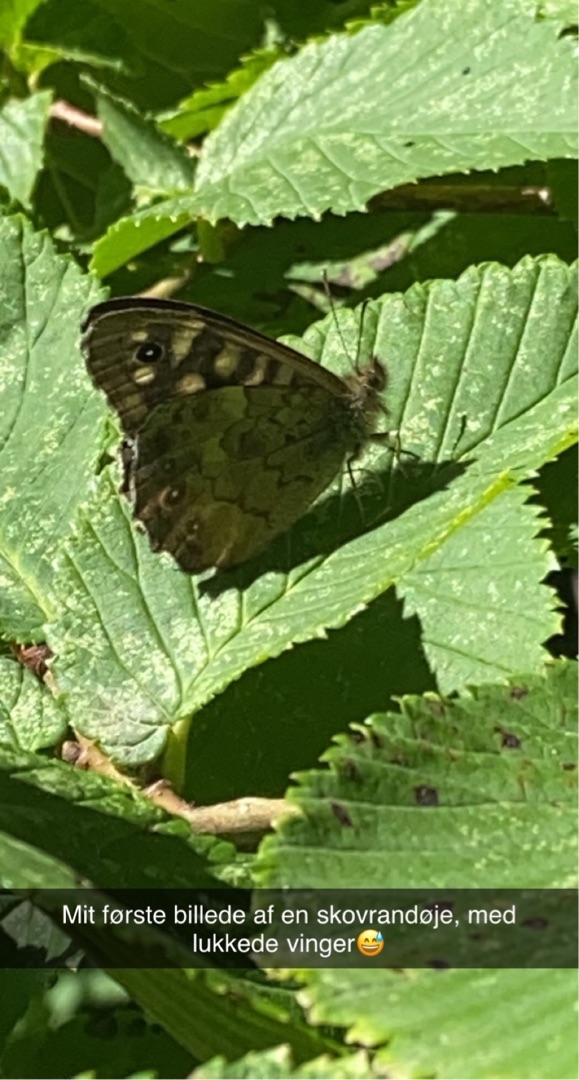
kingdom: Animalia
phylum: Arthropoda
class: Insecta
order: Lepidoptera
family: Nymphalidae
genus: Pararge
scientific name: Pararge aegeria
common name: Skovrandøje
